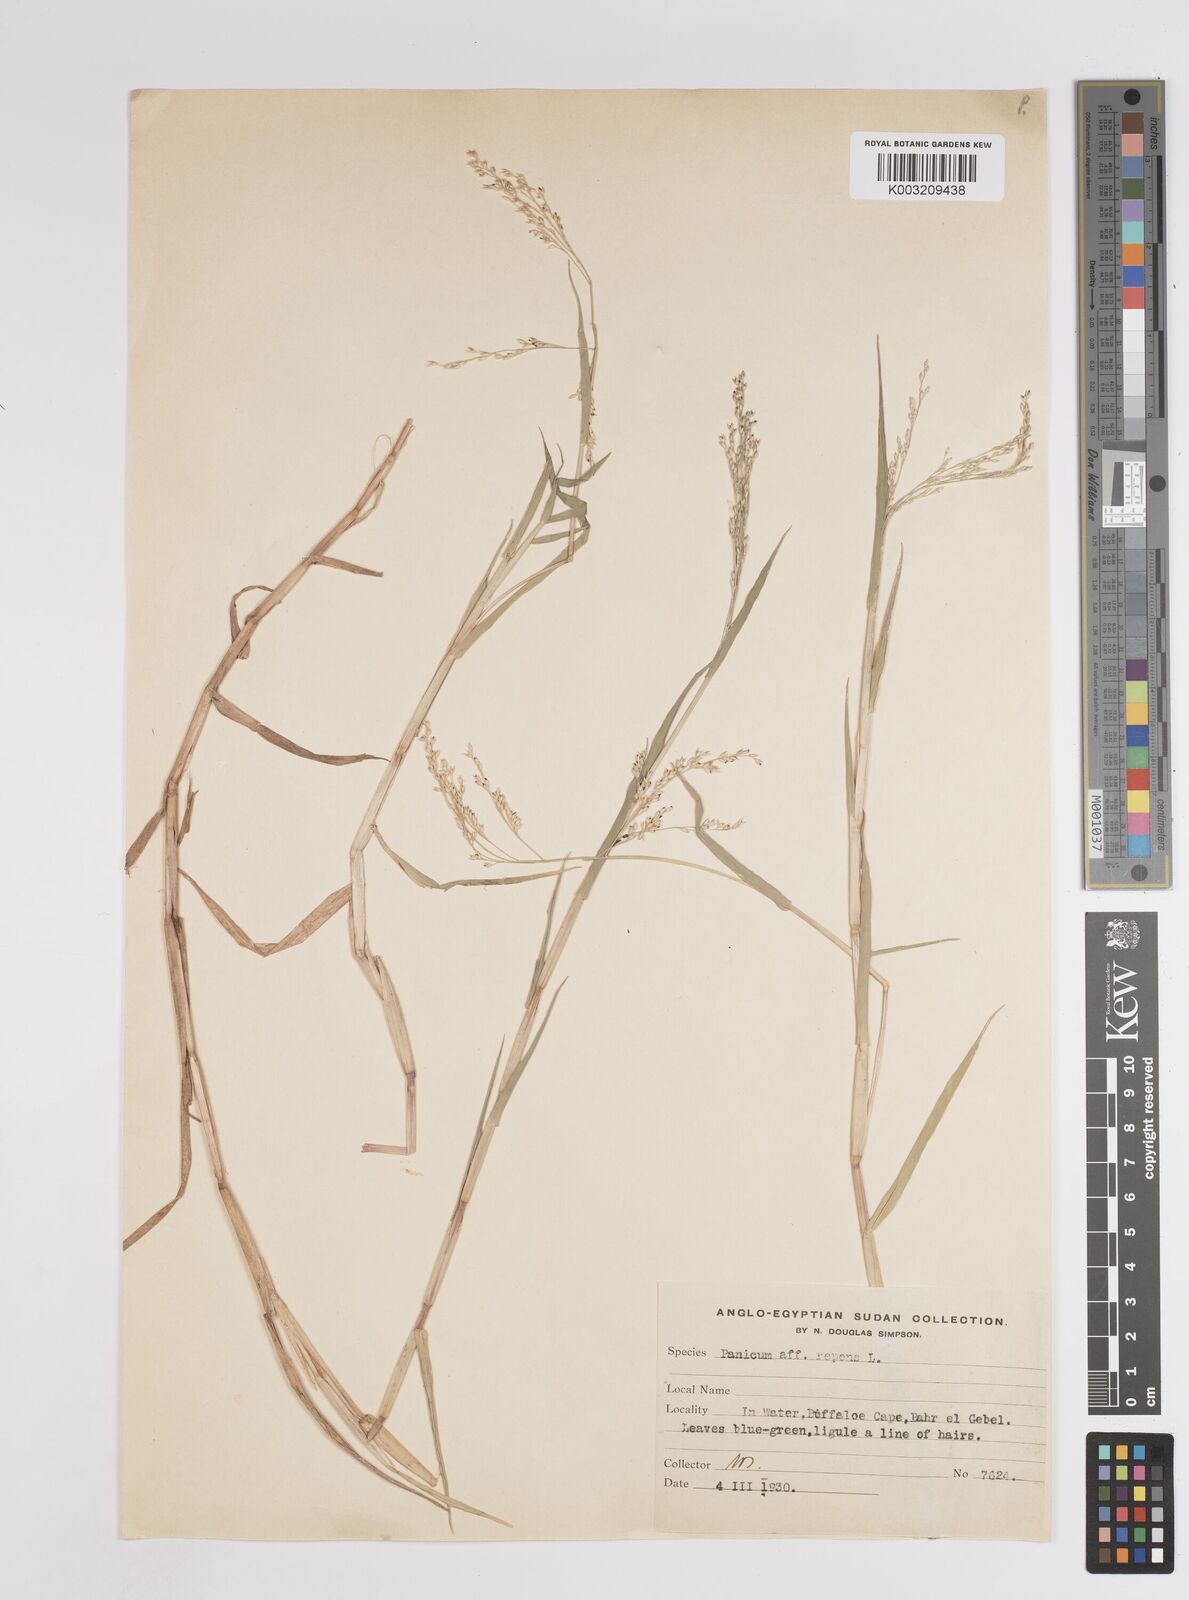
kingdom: Plantae
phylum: Tracheophyta
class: Liliopsida
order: Poales
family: Poaceae
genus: Panicum
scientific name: Panicum hygrocharis
